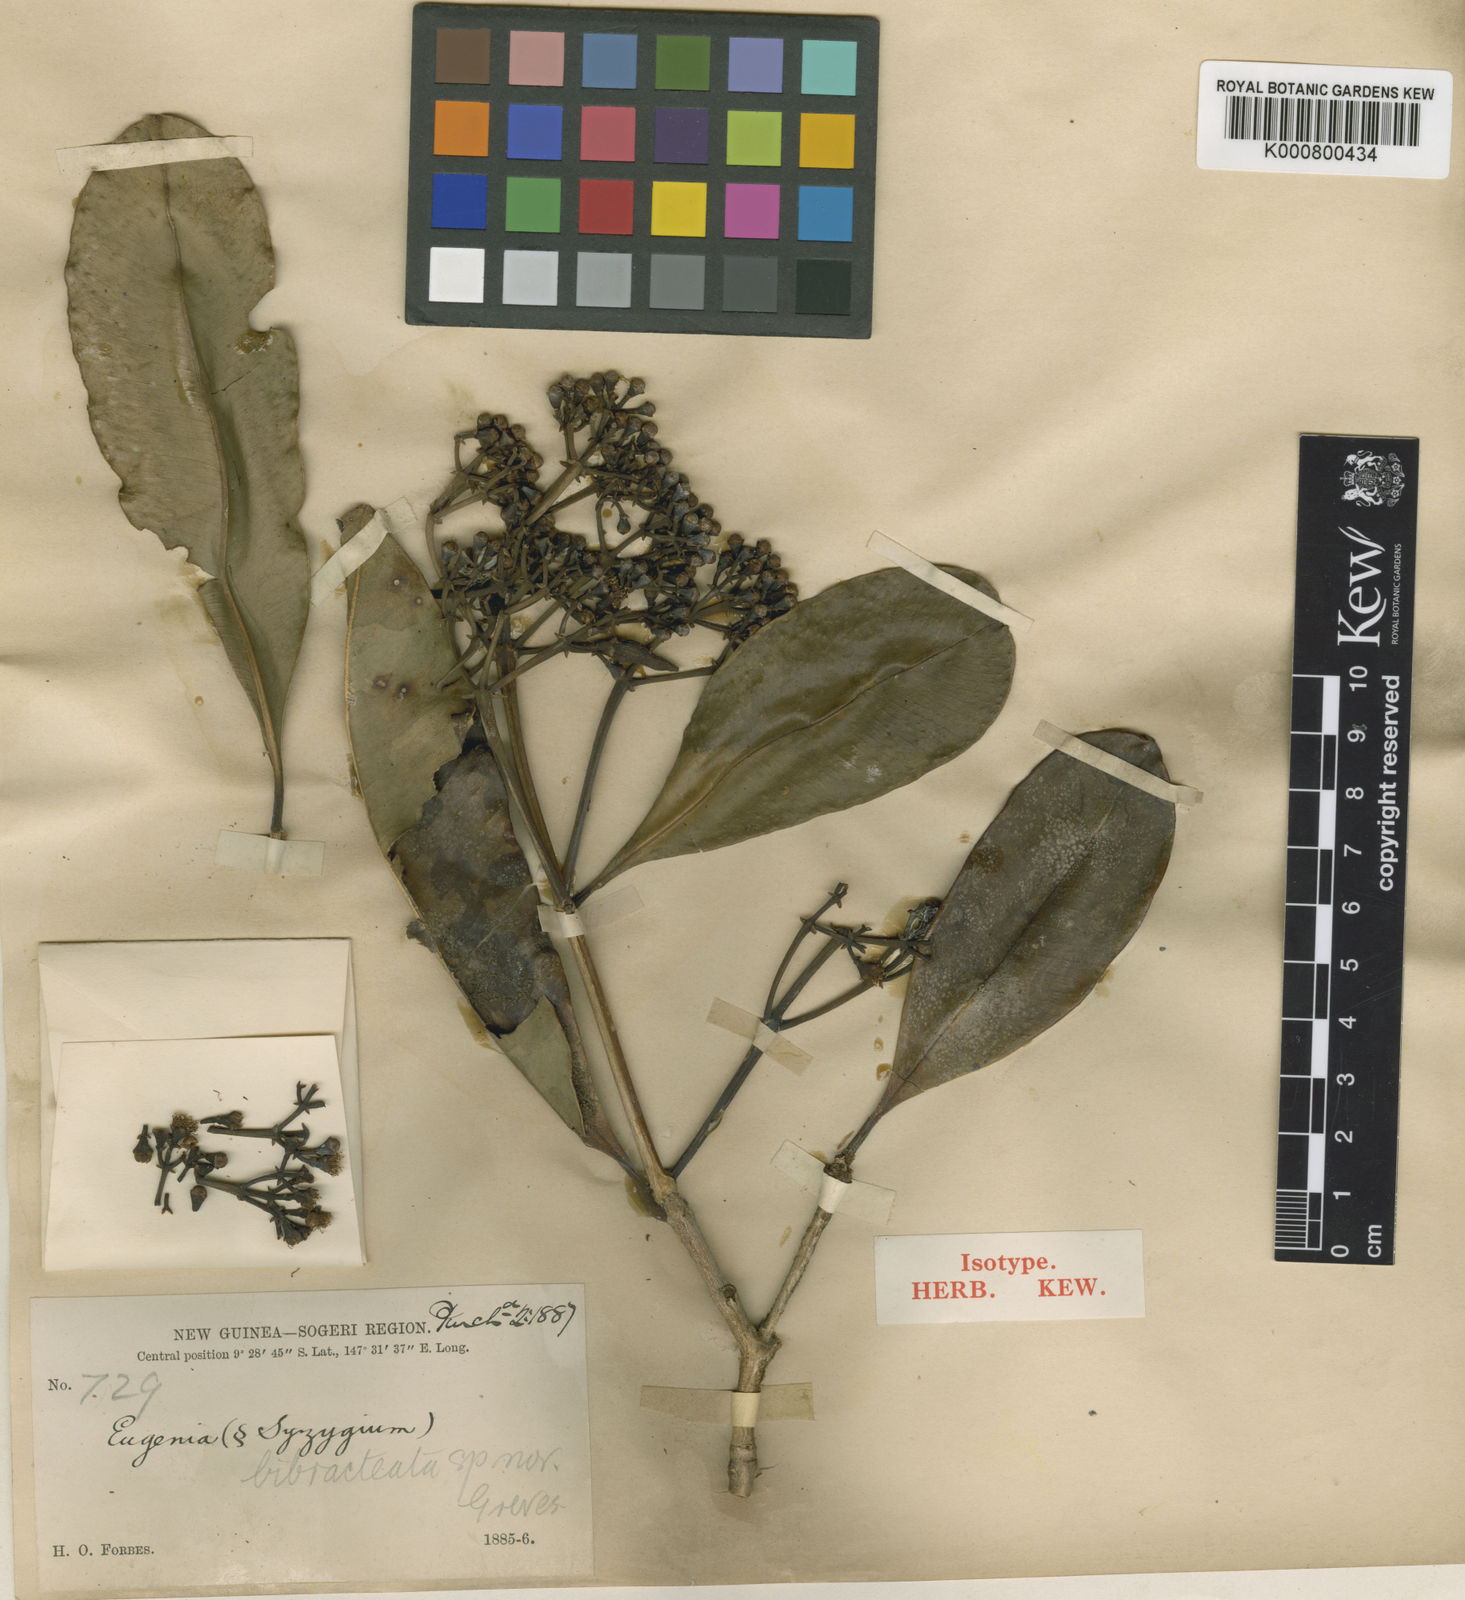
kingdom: Plantae
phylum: Tracheophyta
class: Magnoliopsida
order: Myrtales
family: Myrtaceae
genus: Syzygium
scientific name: Syzygium fastigiatum
